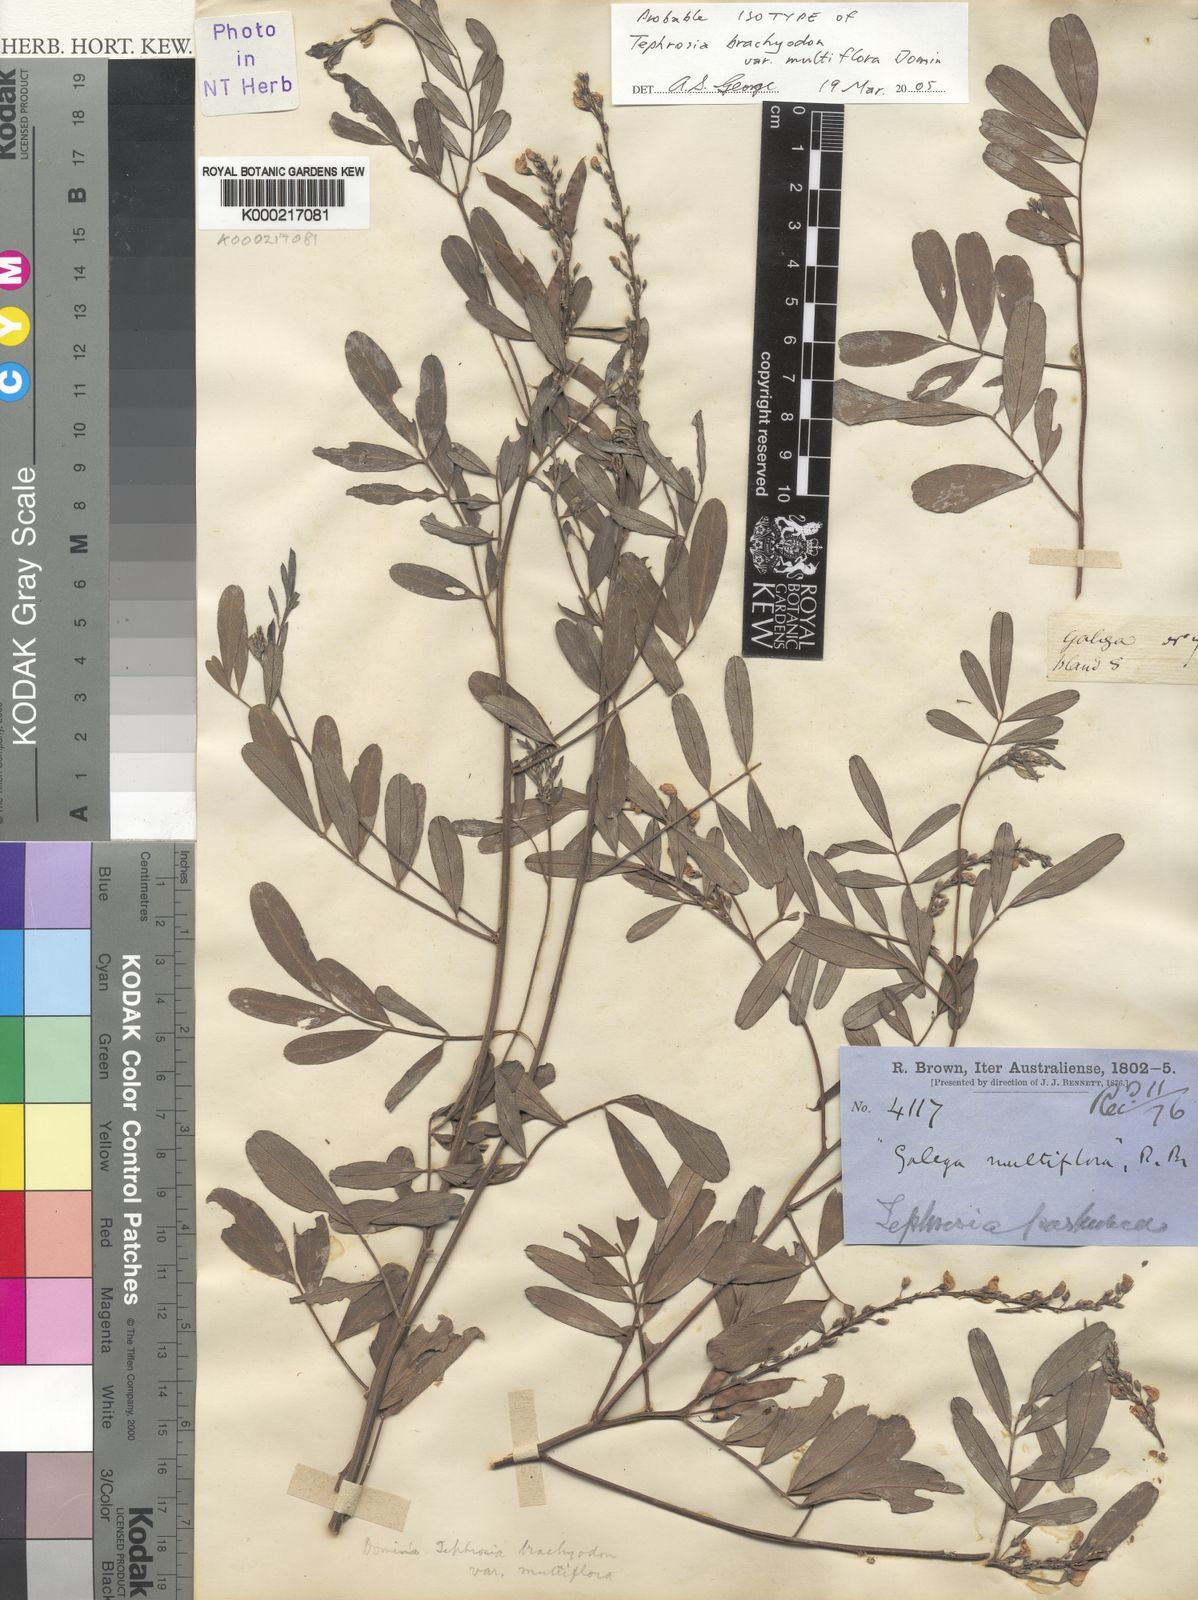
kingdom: Plantae
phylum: Tracheophyta
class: Magnoliopsida
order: Fabales
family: Fabaceae
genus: Tephrosia
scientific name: Tephrosia oligophylla
